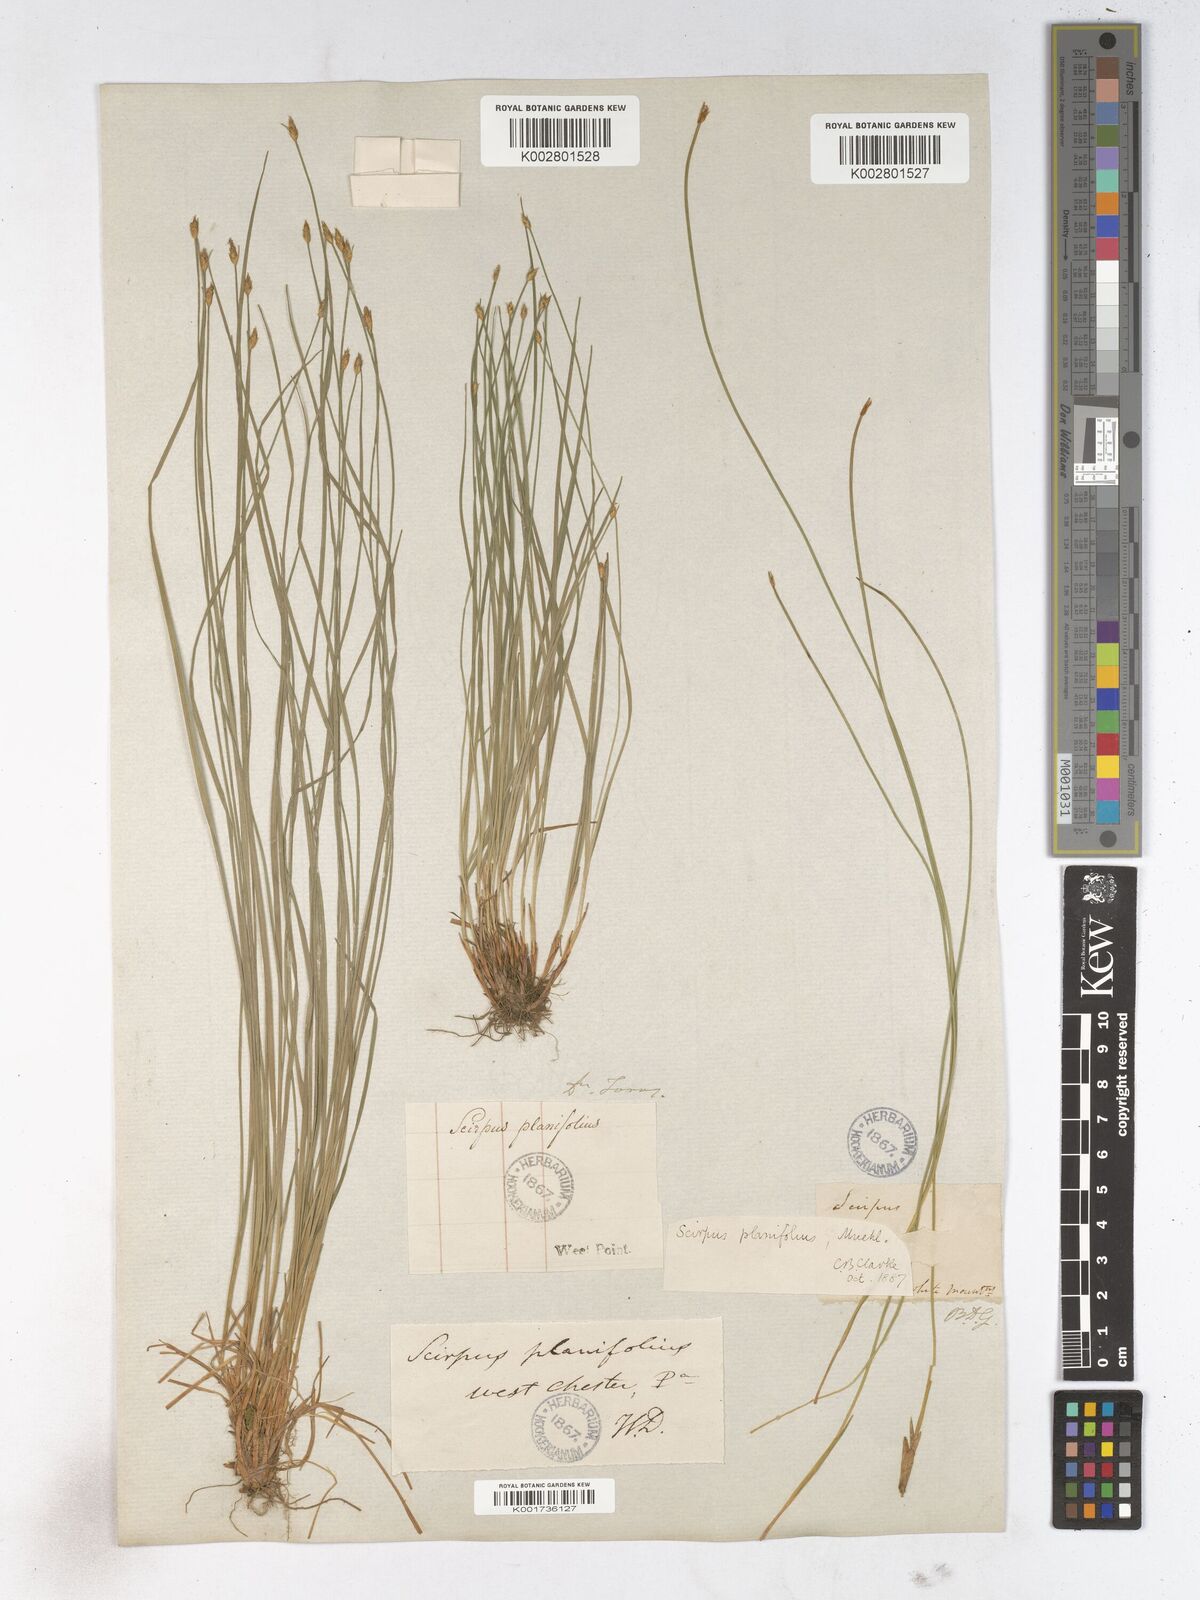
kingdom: Plantae
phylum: Tracheophyta
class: Liliopsida
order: Poales
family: Cyperaceae
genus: Trichophorum
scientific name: Trichophorum planifolium
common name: Bashful bulrush
